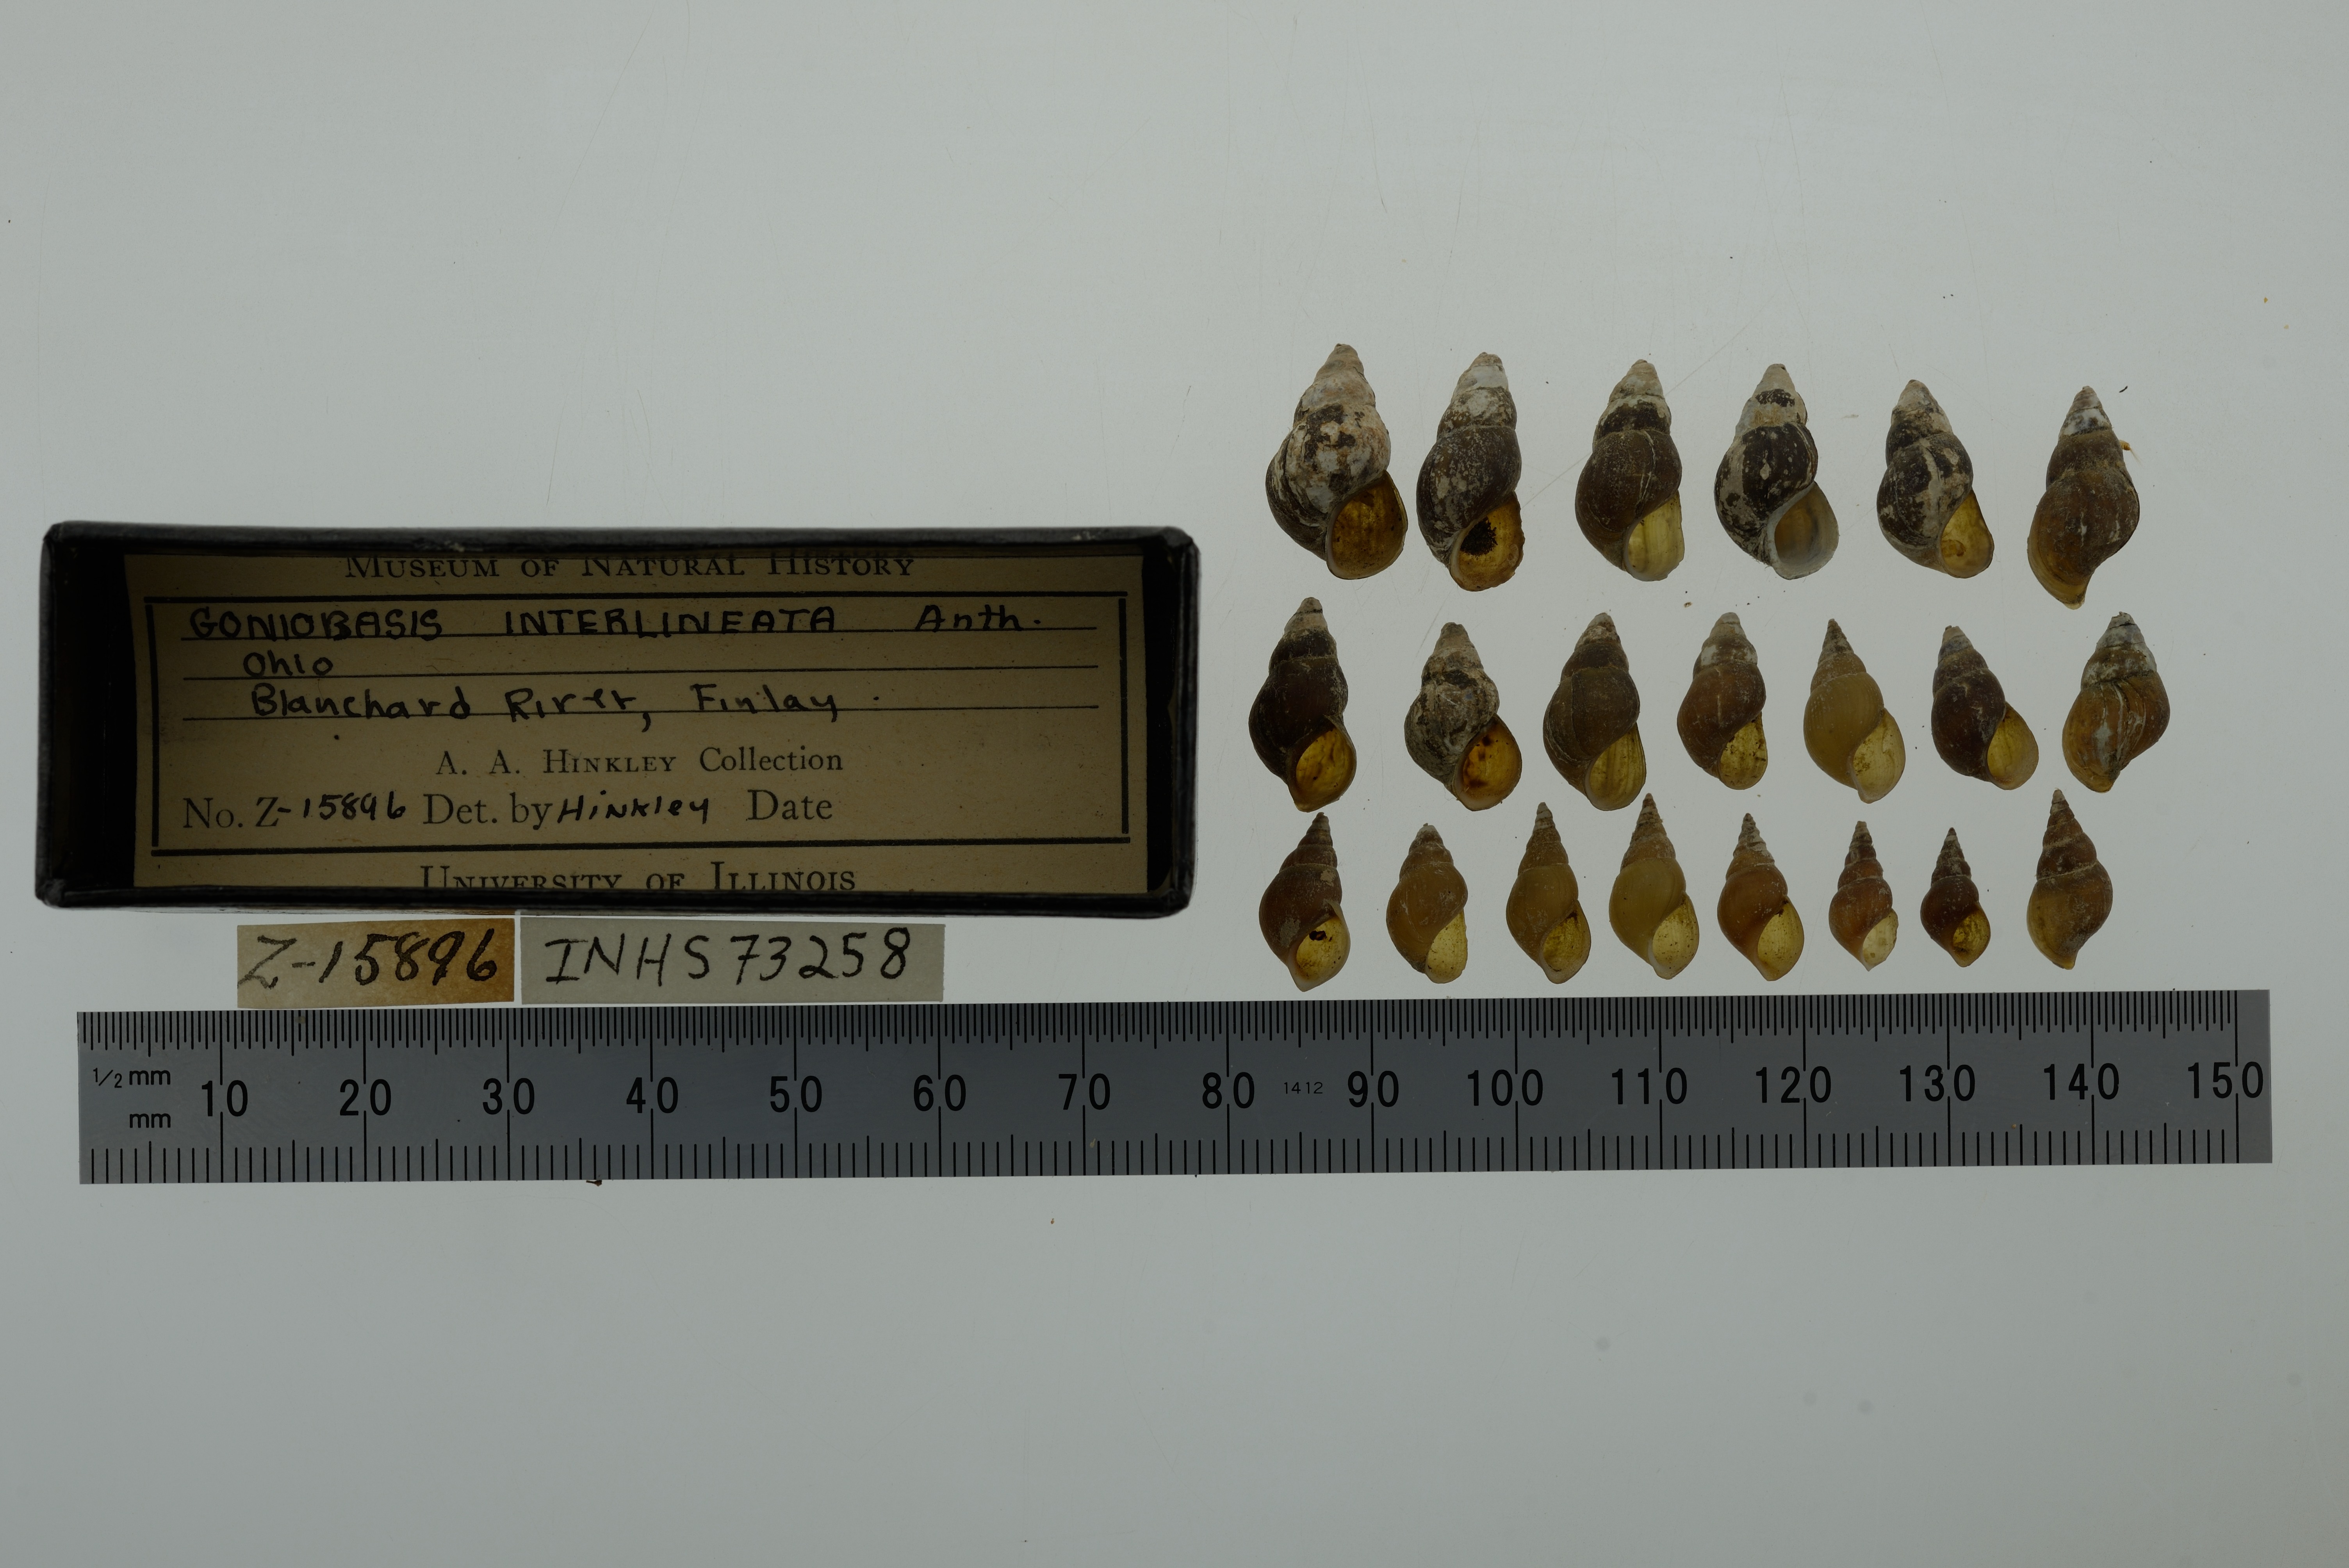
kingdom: Animalia
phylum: Mollusca
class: Gastropoda
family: Pleuroceridae
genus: Elimia
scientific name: Elimia semicarinata
